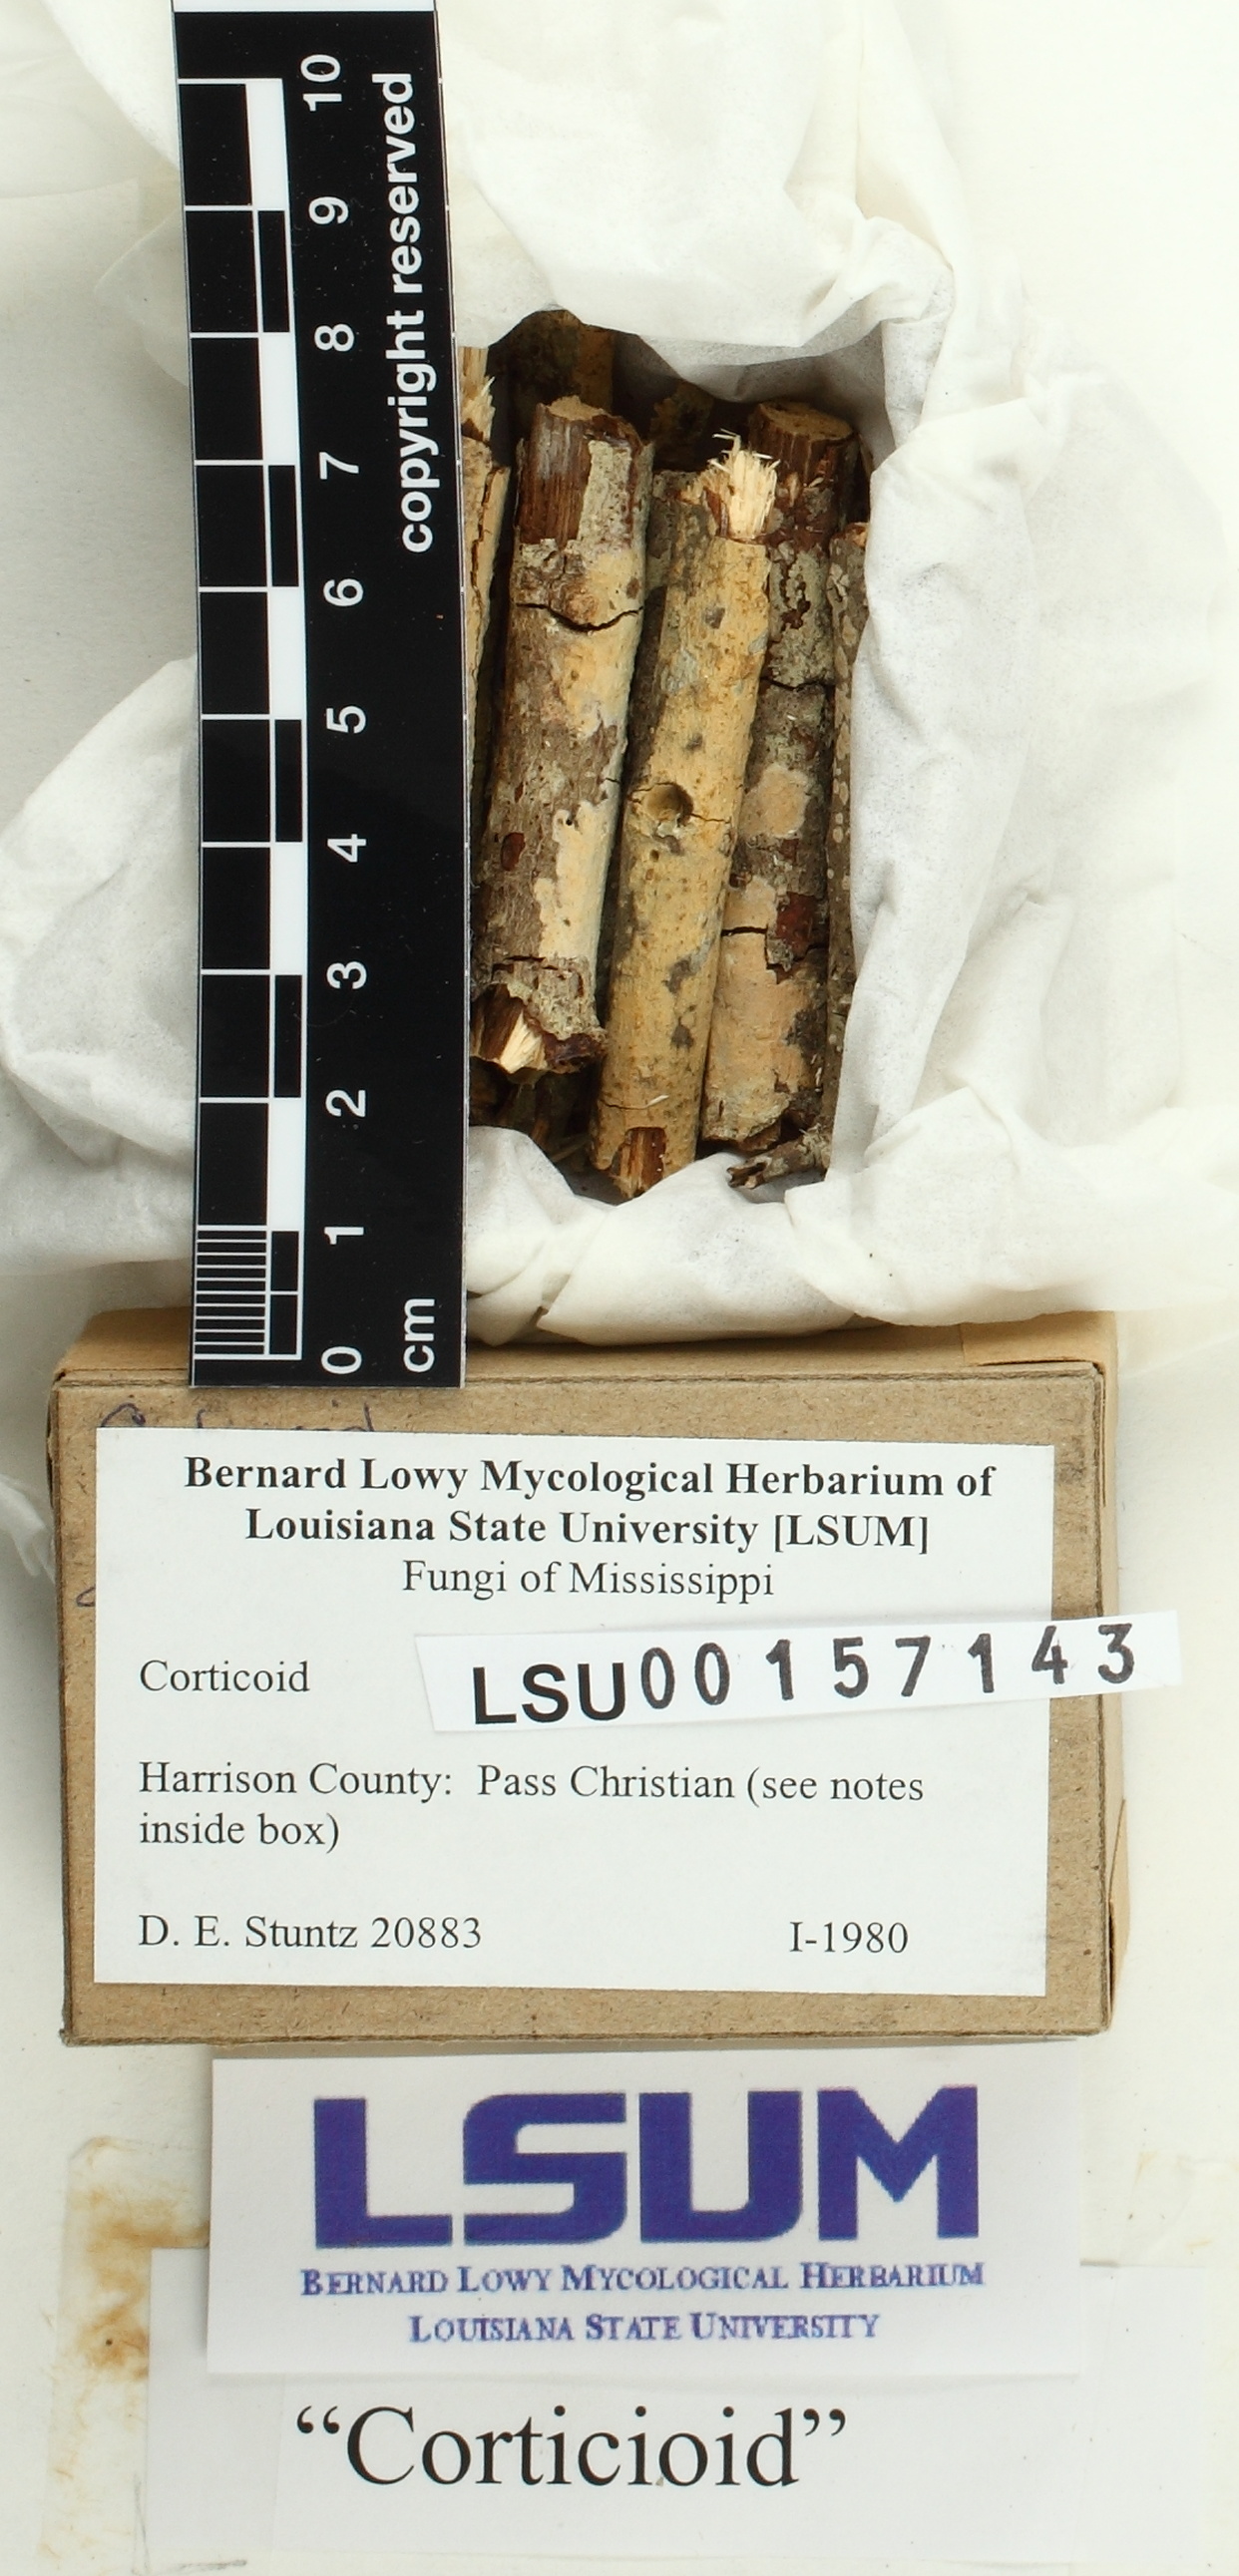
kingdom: Fungi
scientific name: Fungi
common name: Fungi
